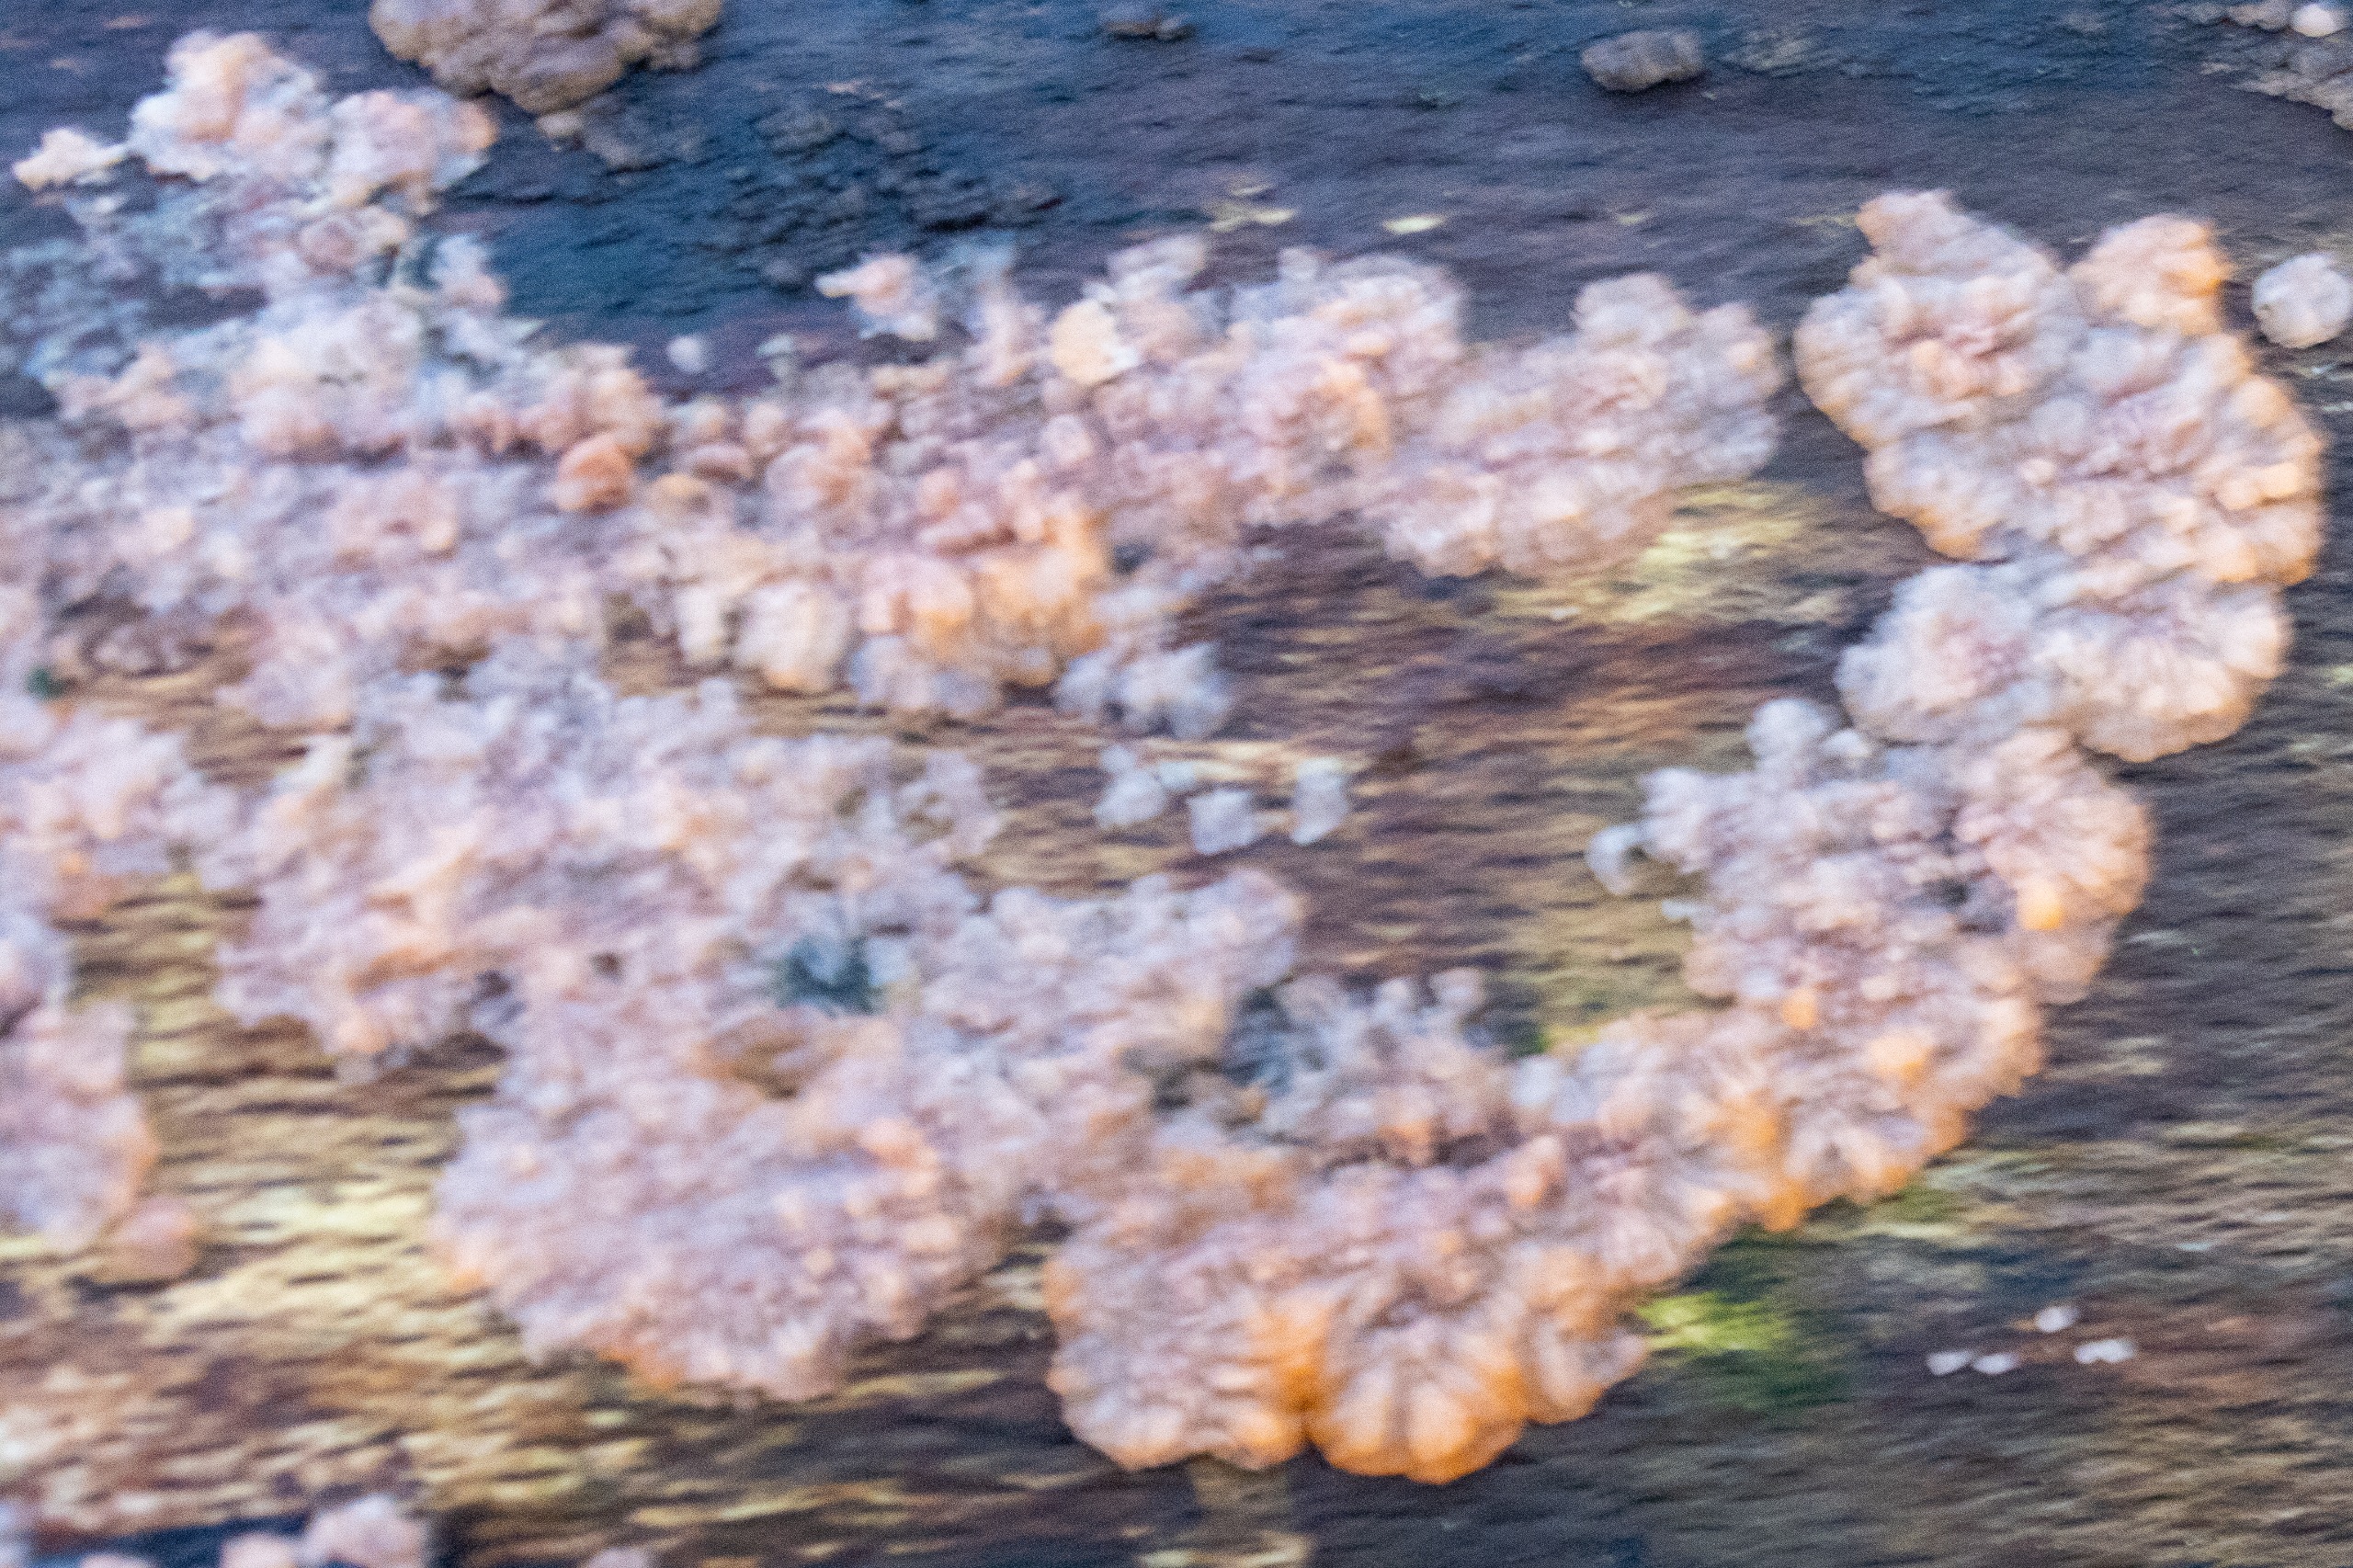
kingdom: Fungi
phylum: Basidiomycota
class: Agaricomycetes
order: Polyporales
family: Meruliaceae
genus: Phlebia
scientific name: Phlebia radiata
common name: Stråle-åresvamp
